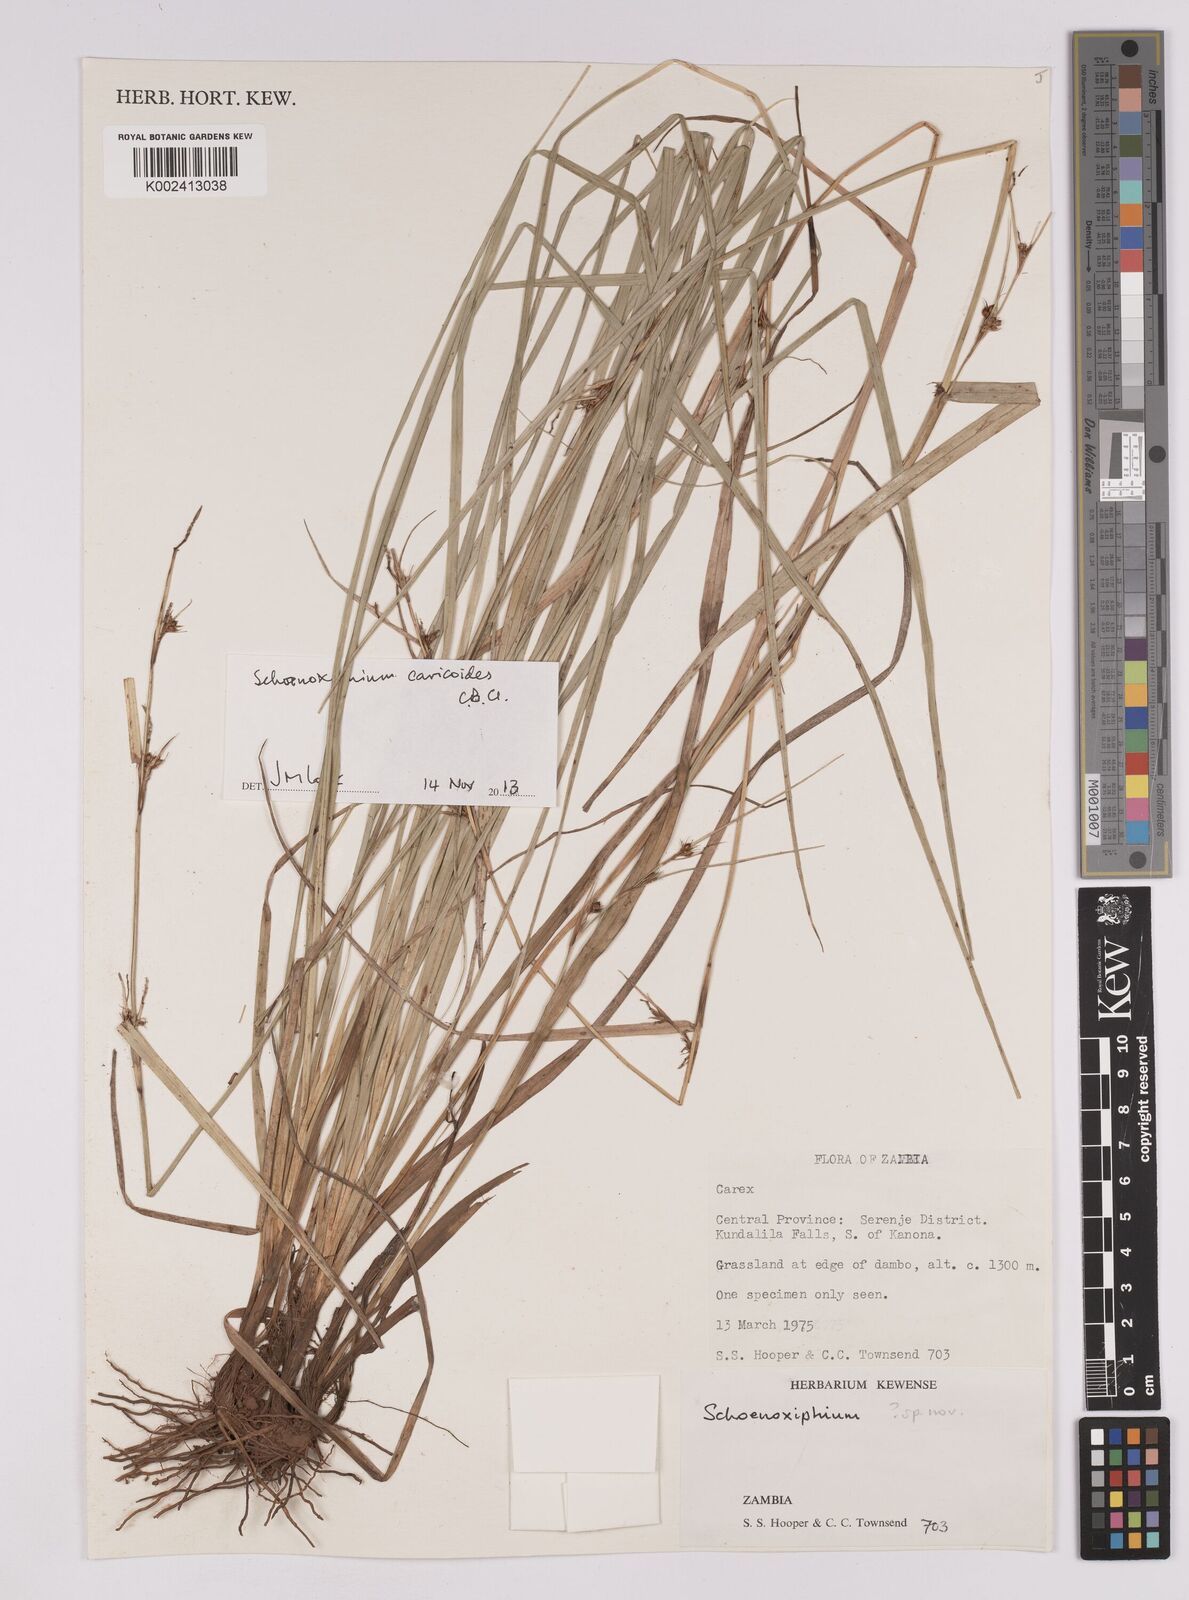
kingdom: Plantae
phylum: Tracheophyta
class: Liliopsida
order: Poales
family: Cyperaceae
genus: Carex
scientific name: Carex spartea
